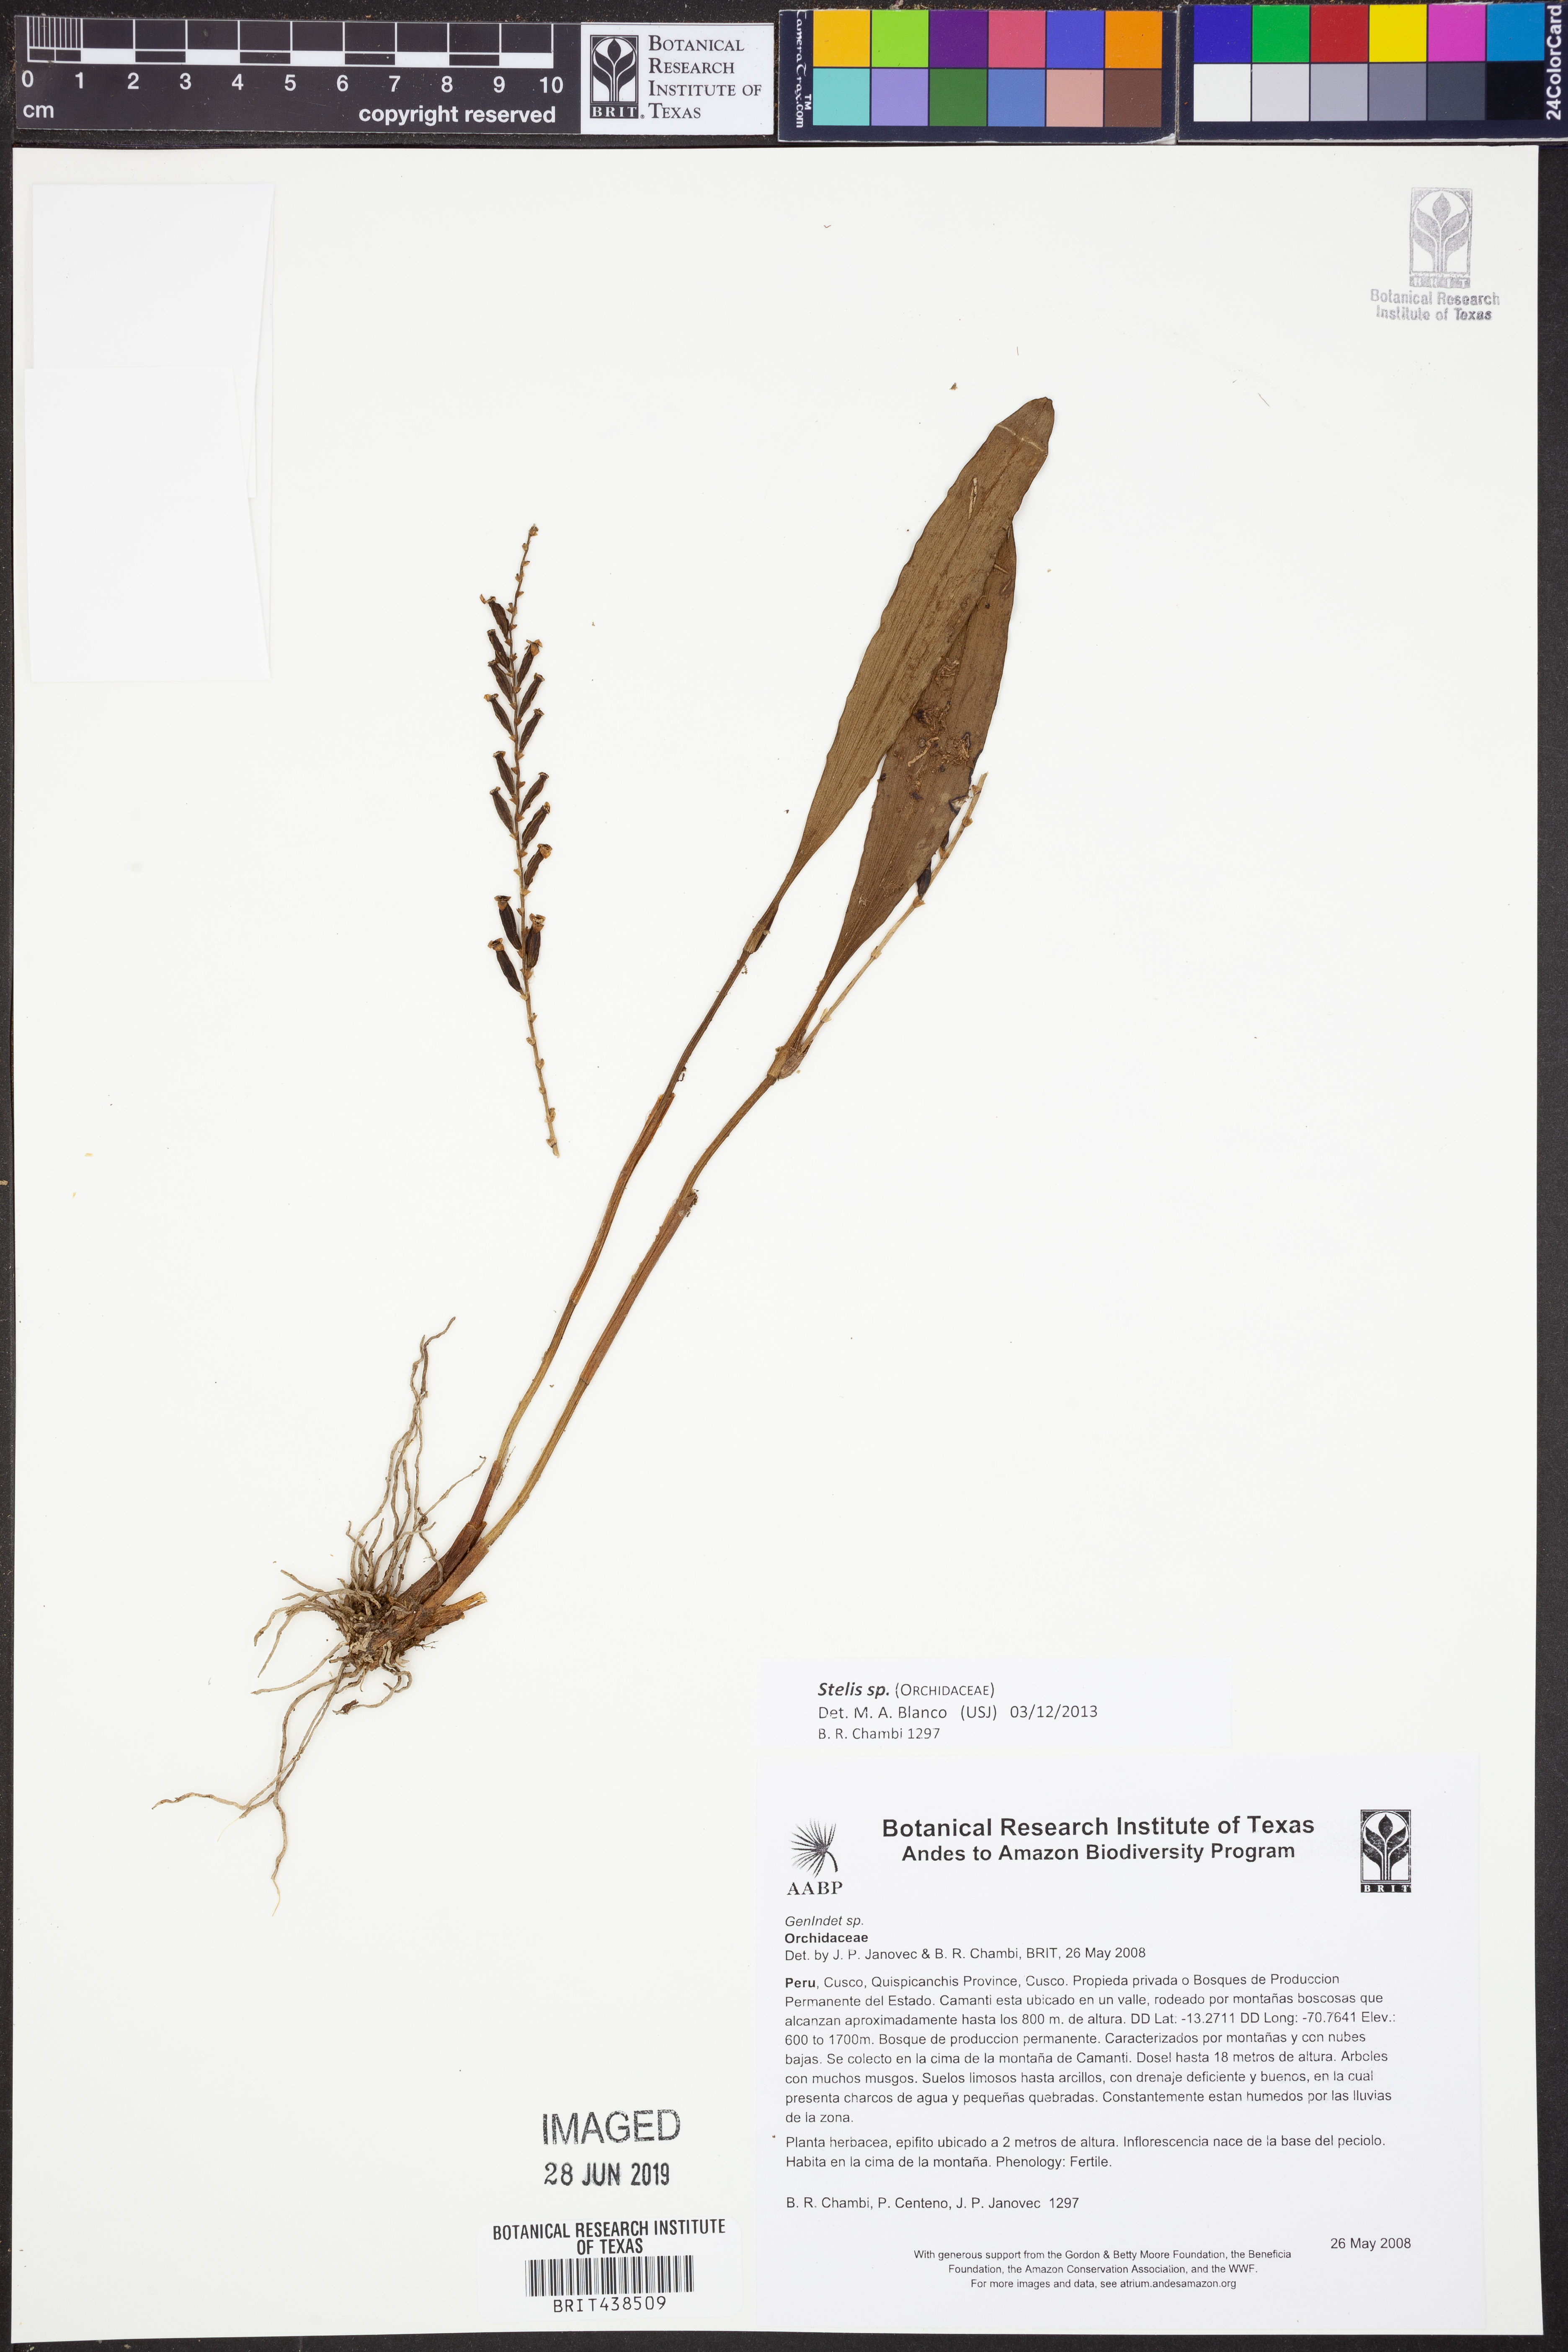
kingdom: Plantae
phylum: Tracheophyta
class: Liliopsida
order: Asparagales
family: Orchidaceae
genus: Stelis
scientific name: Stelis
